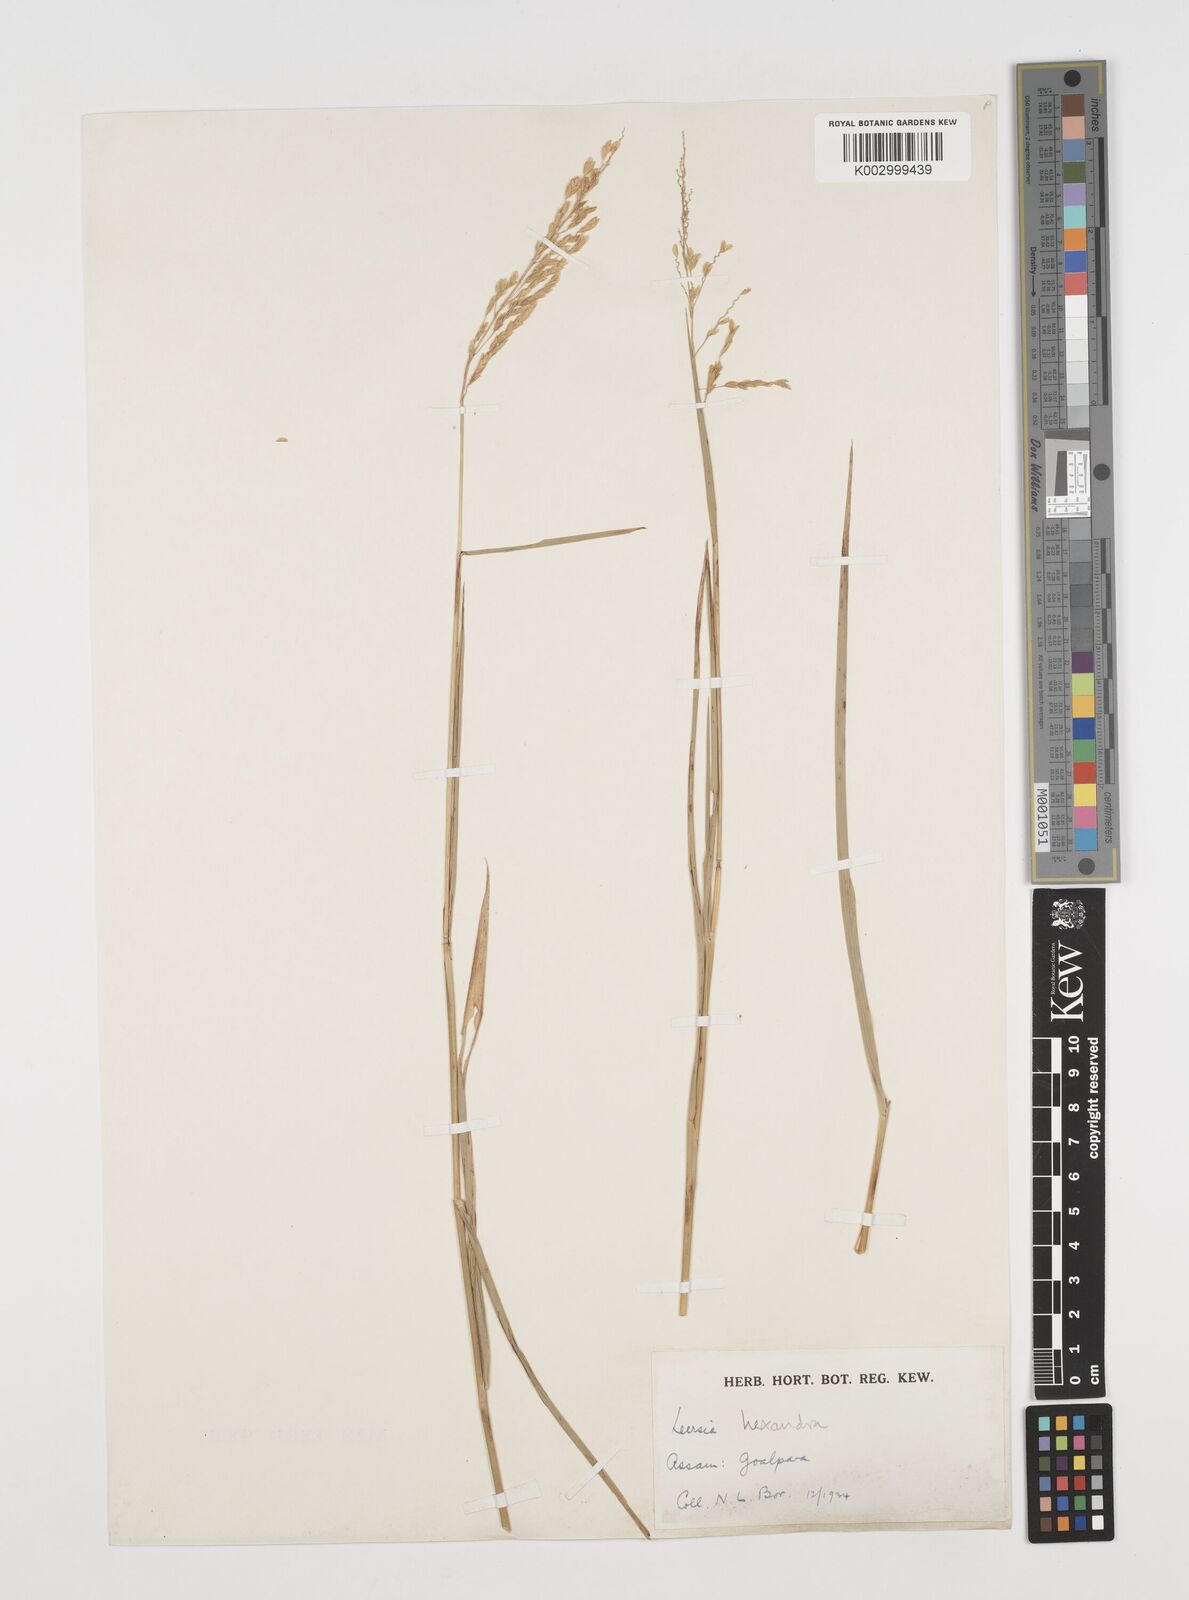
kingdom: Plantae
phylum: Tracheophyta
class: Liliopsida
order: Poales
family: Poaceae
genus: Leersia
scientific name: Leersia hexandra
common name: Southern cut grass
